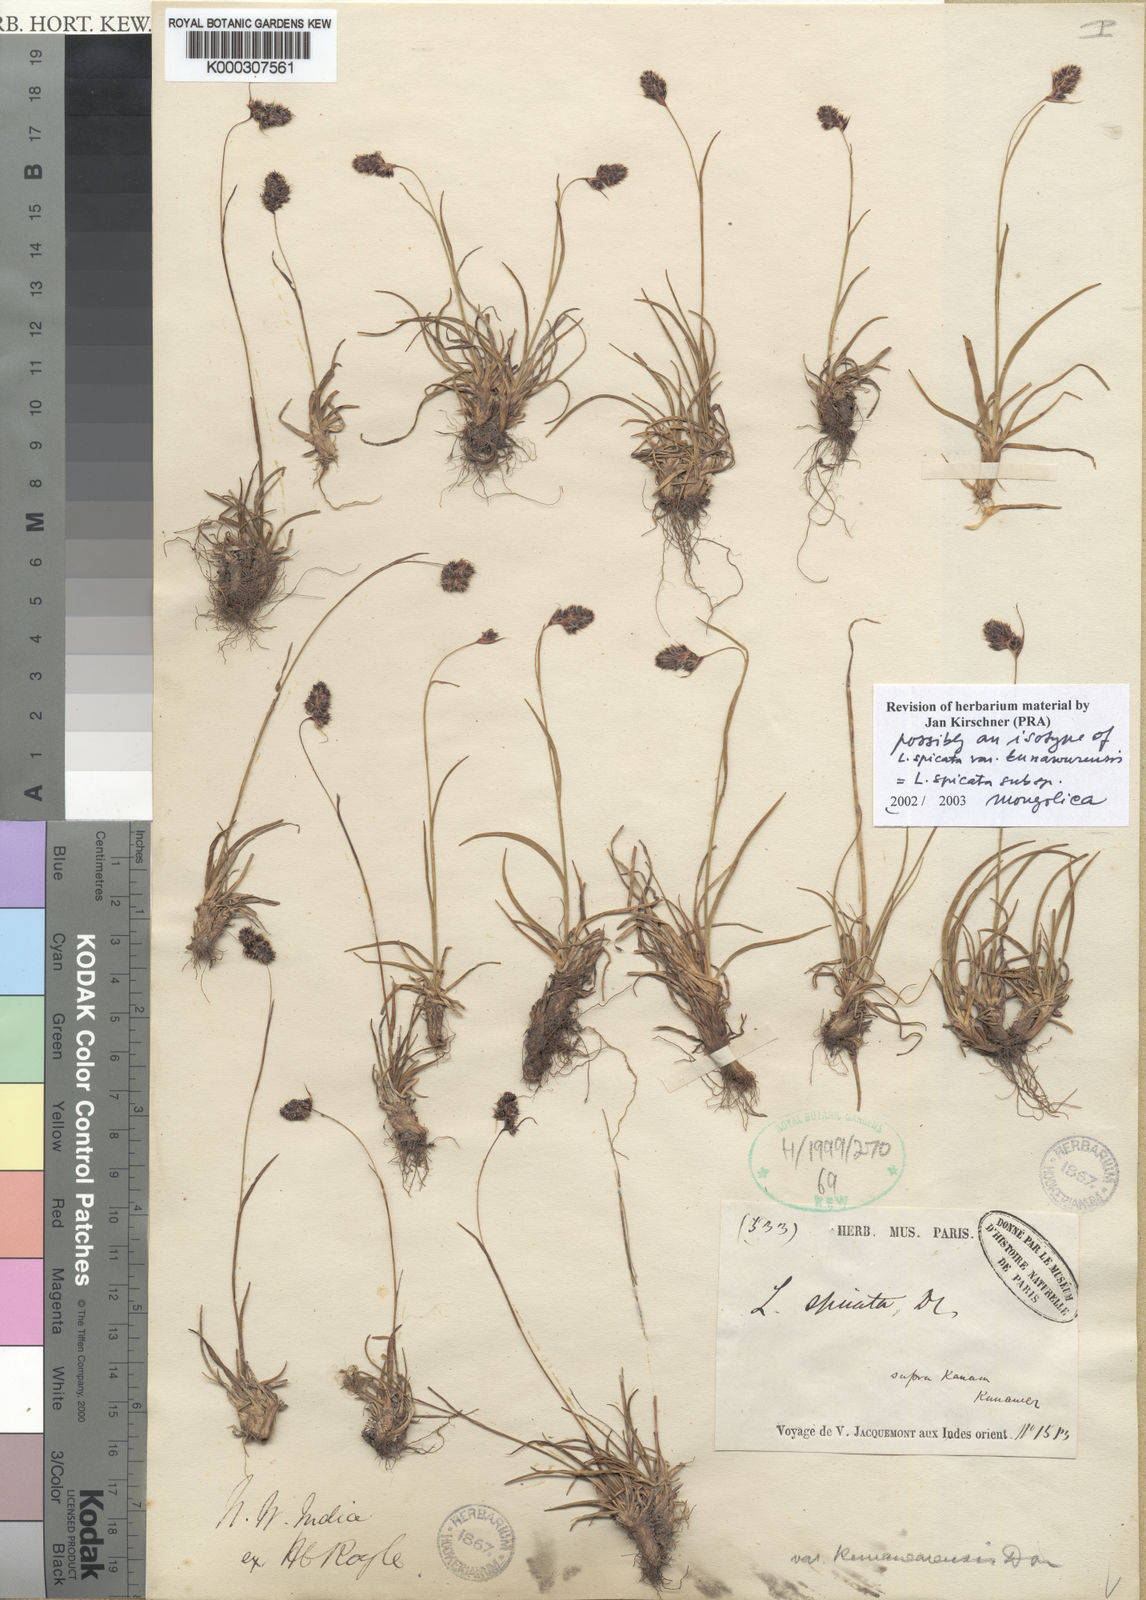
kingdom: Plantae
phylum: Tracheophyta
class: Liliopsida
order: Poales
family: Juncaceae
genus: Luzula
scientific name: Luzula spicata
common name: Spiked wood-rush
